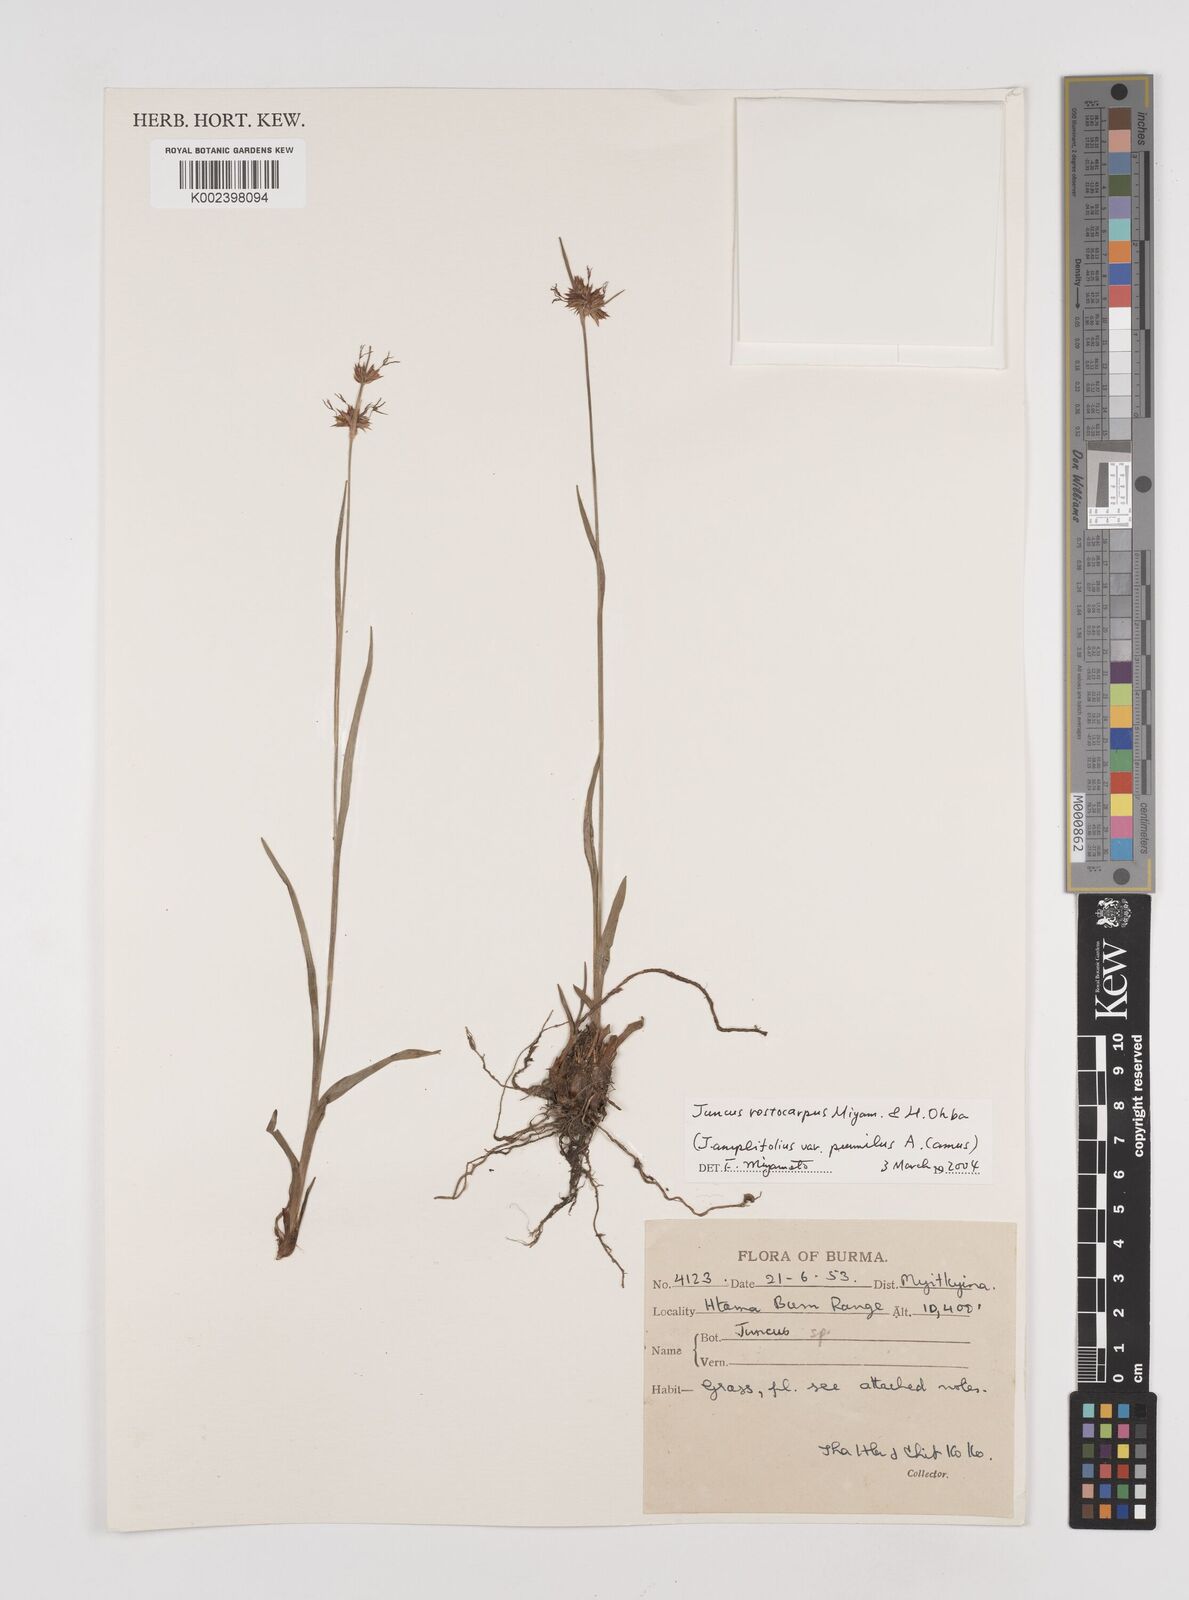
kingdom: Plantae
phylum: Tracheophyta
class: Liliopsida
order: Poales
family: Juncaceae
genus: Juncus
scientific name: Juncus
